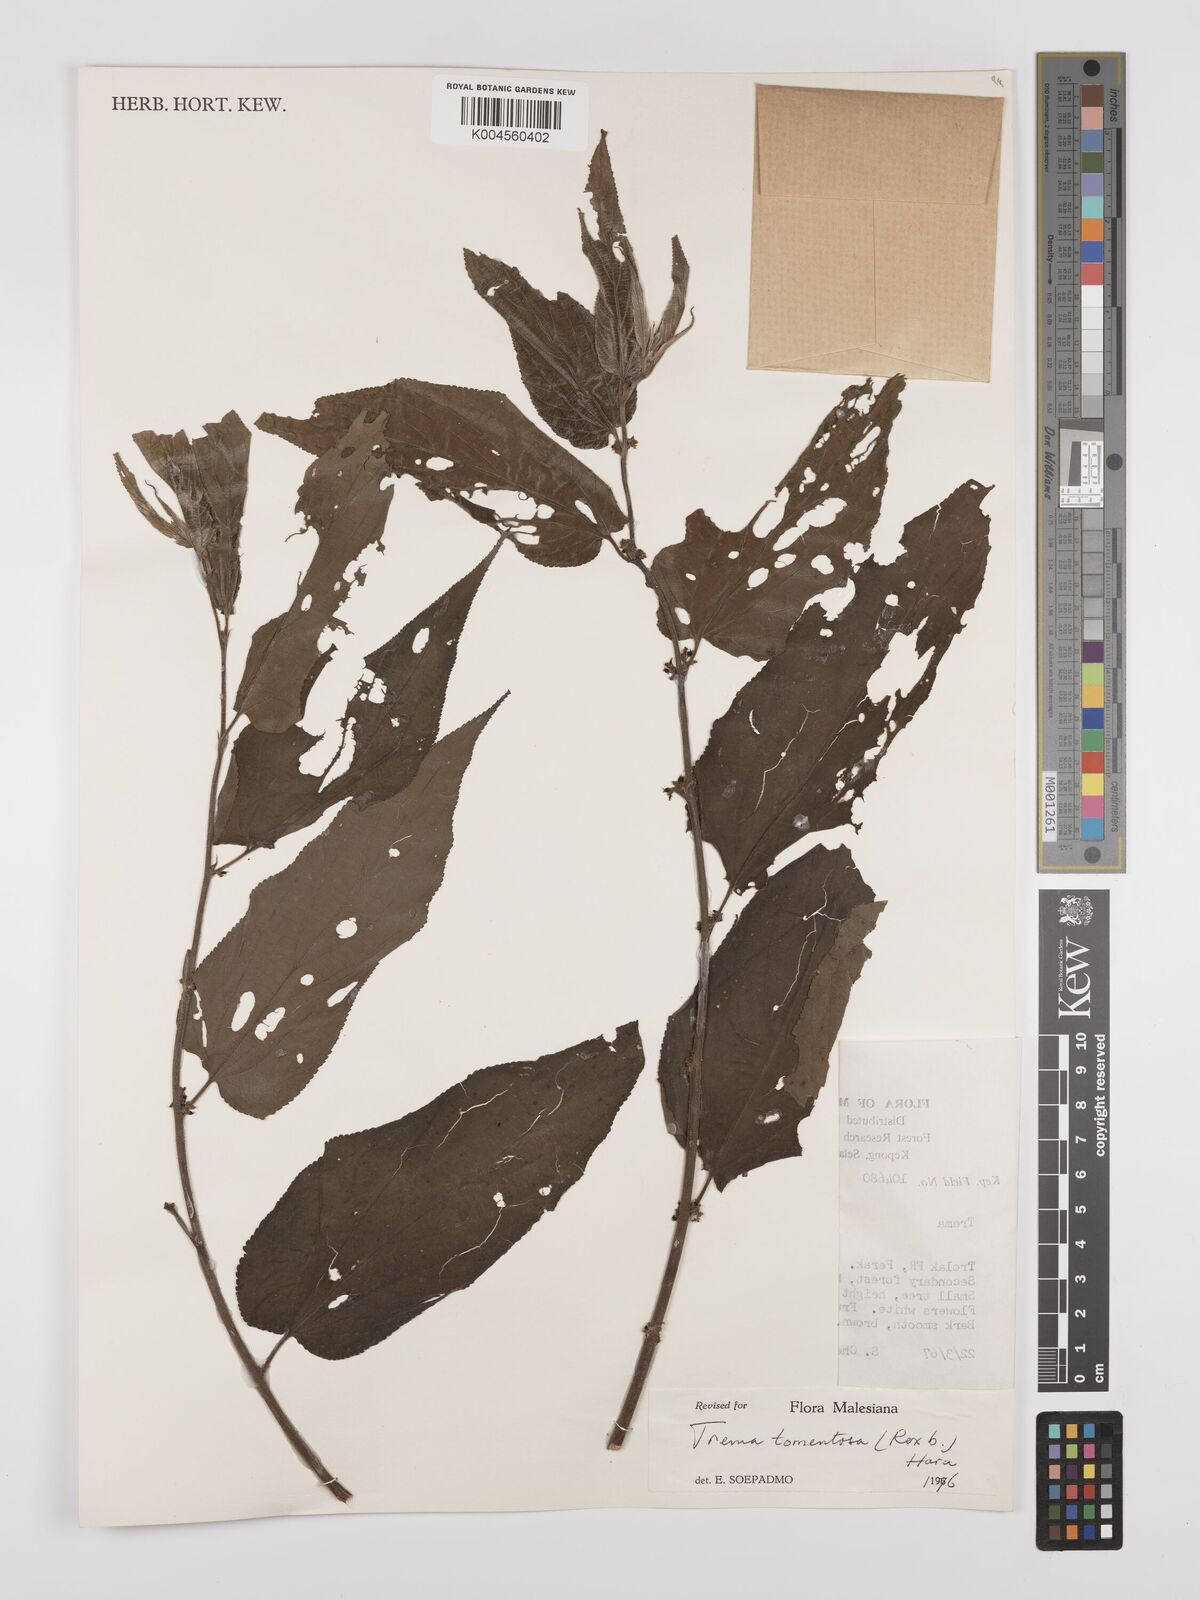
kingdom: Plantae
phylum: Tracheophyta
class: Magnoliopsida
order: Rosales
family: Cannabaceae
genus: Trema
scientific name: Trema tomentosum
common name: Peach-leaf-poisonbush
